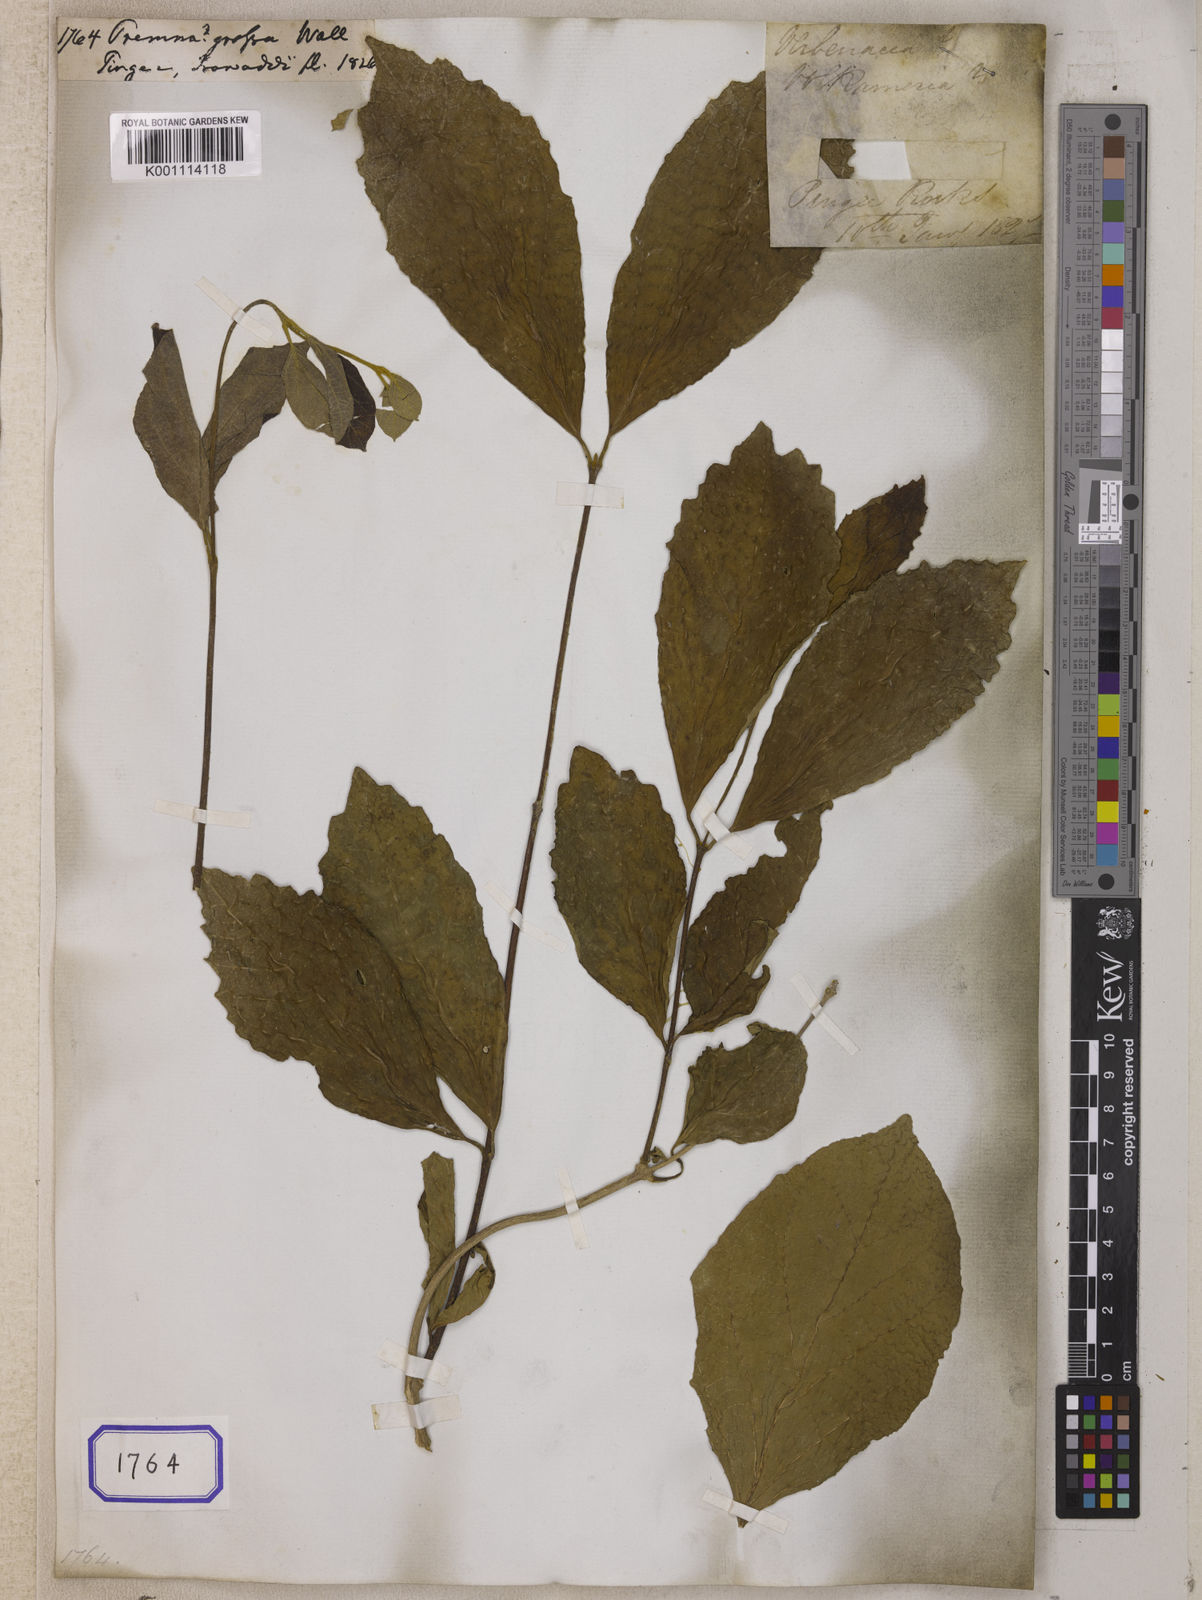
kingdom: Plantae
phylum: Tracheophyta
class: Magnoliopsida
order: Lamiales
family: Lamiaceae
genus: Premna
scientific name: Premna
